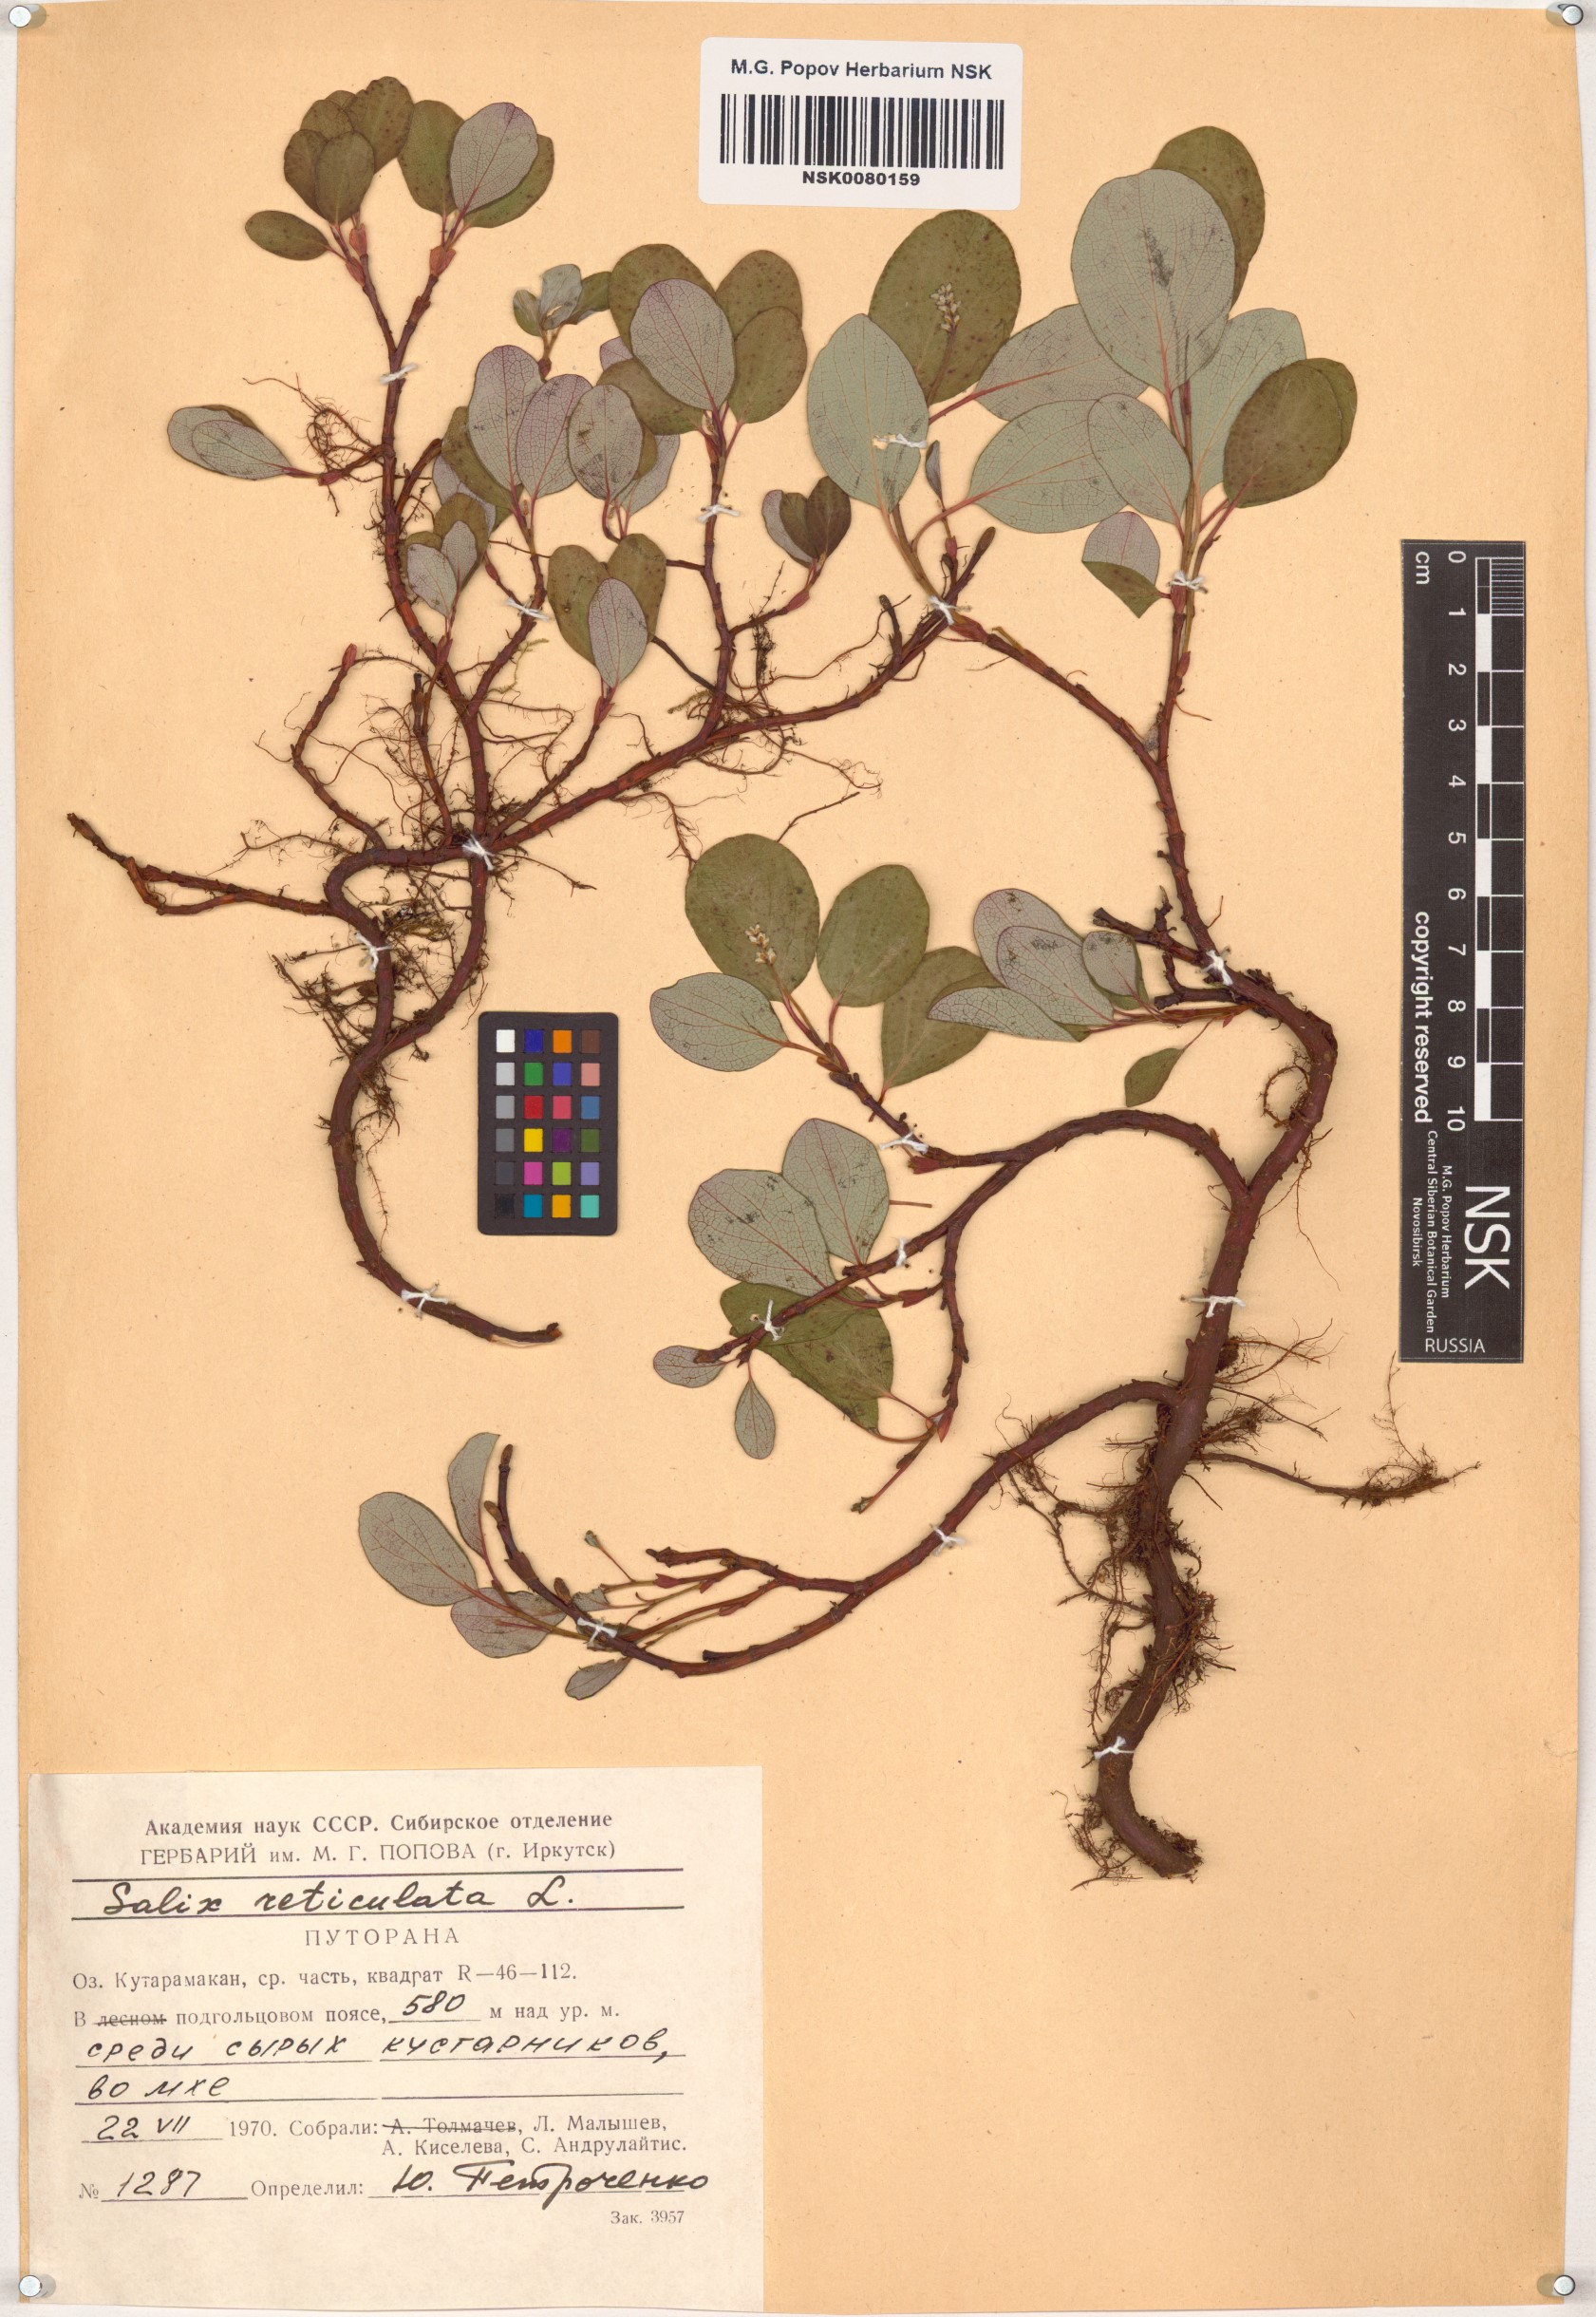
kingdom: Plantae
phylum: Tracheophyta
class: Magnoliopsida
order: Malpighiales
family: Salicaceae
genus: Salix
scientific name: Salix reticulata
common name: Net-leaved willow
